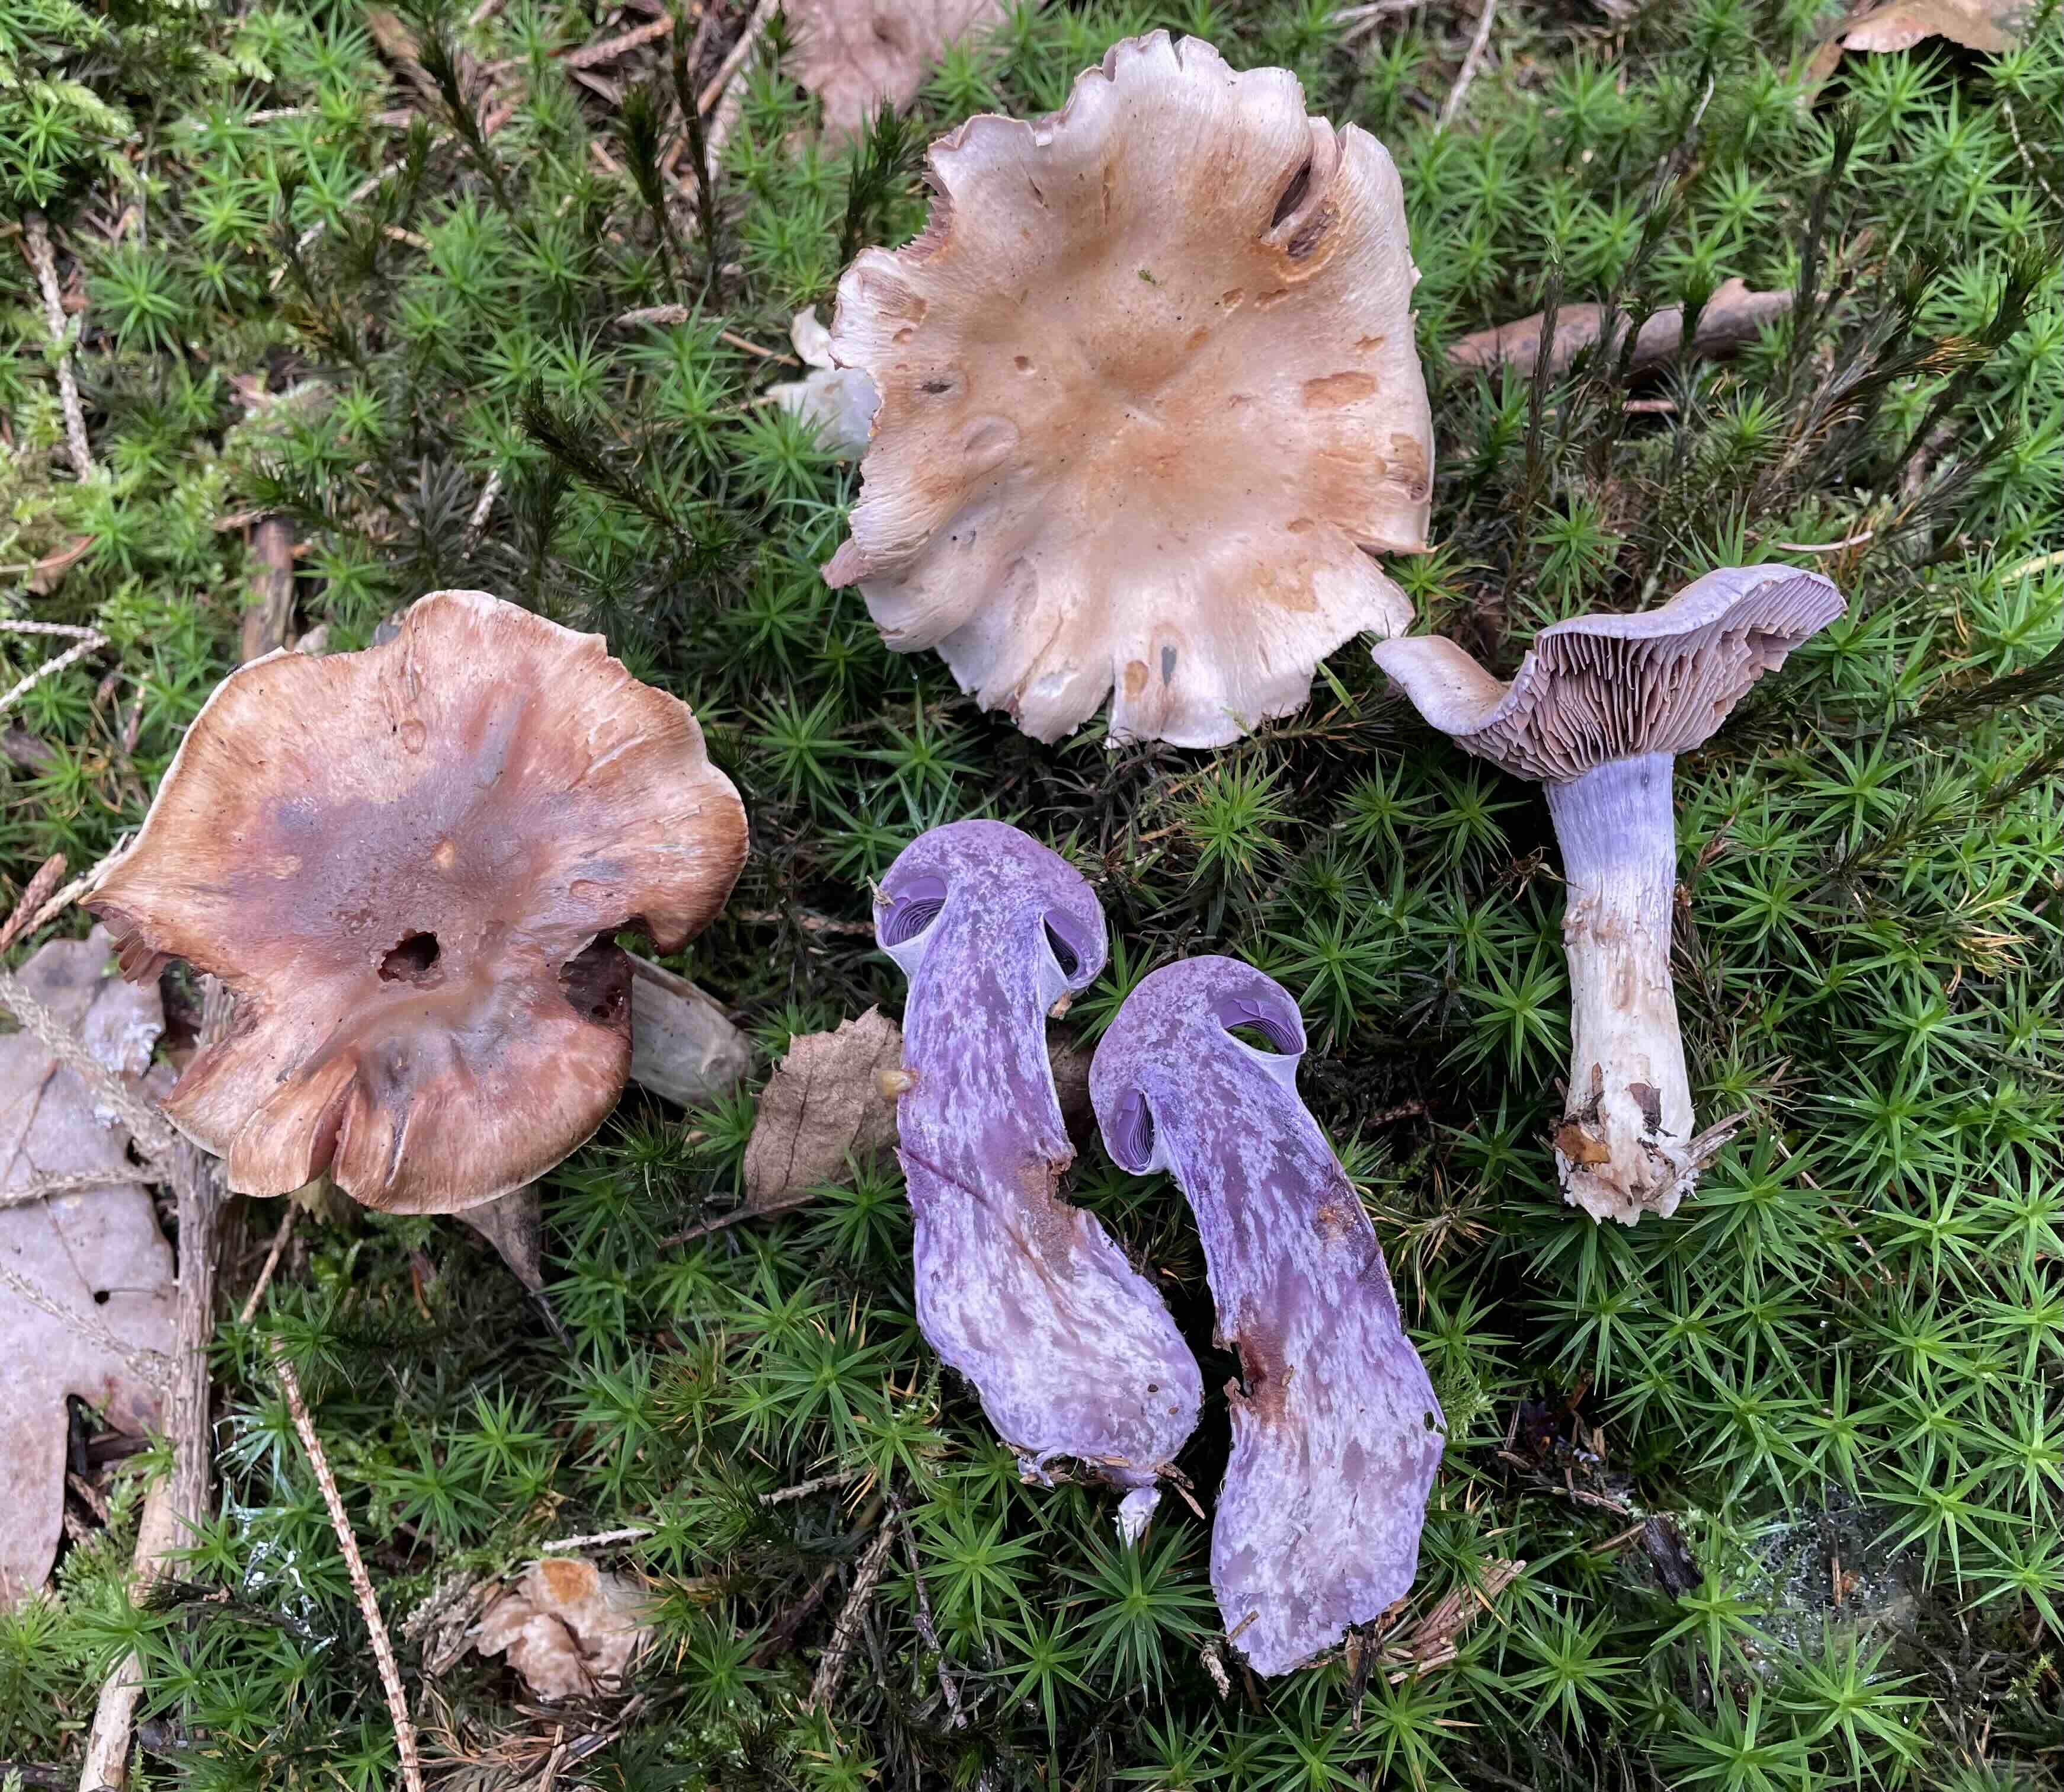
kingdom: Fungi
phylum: Basidiomycota
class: Agaricomycetes
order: Agaricales
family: Cortinariaceae
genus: Cortinarius
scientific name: Cortinarius camphoratus
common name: stinkende slørhat
